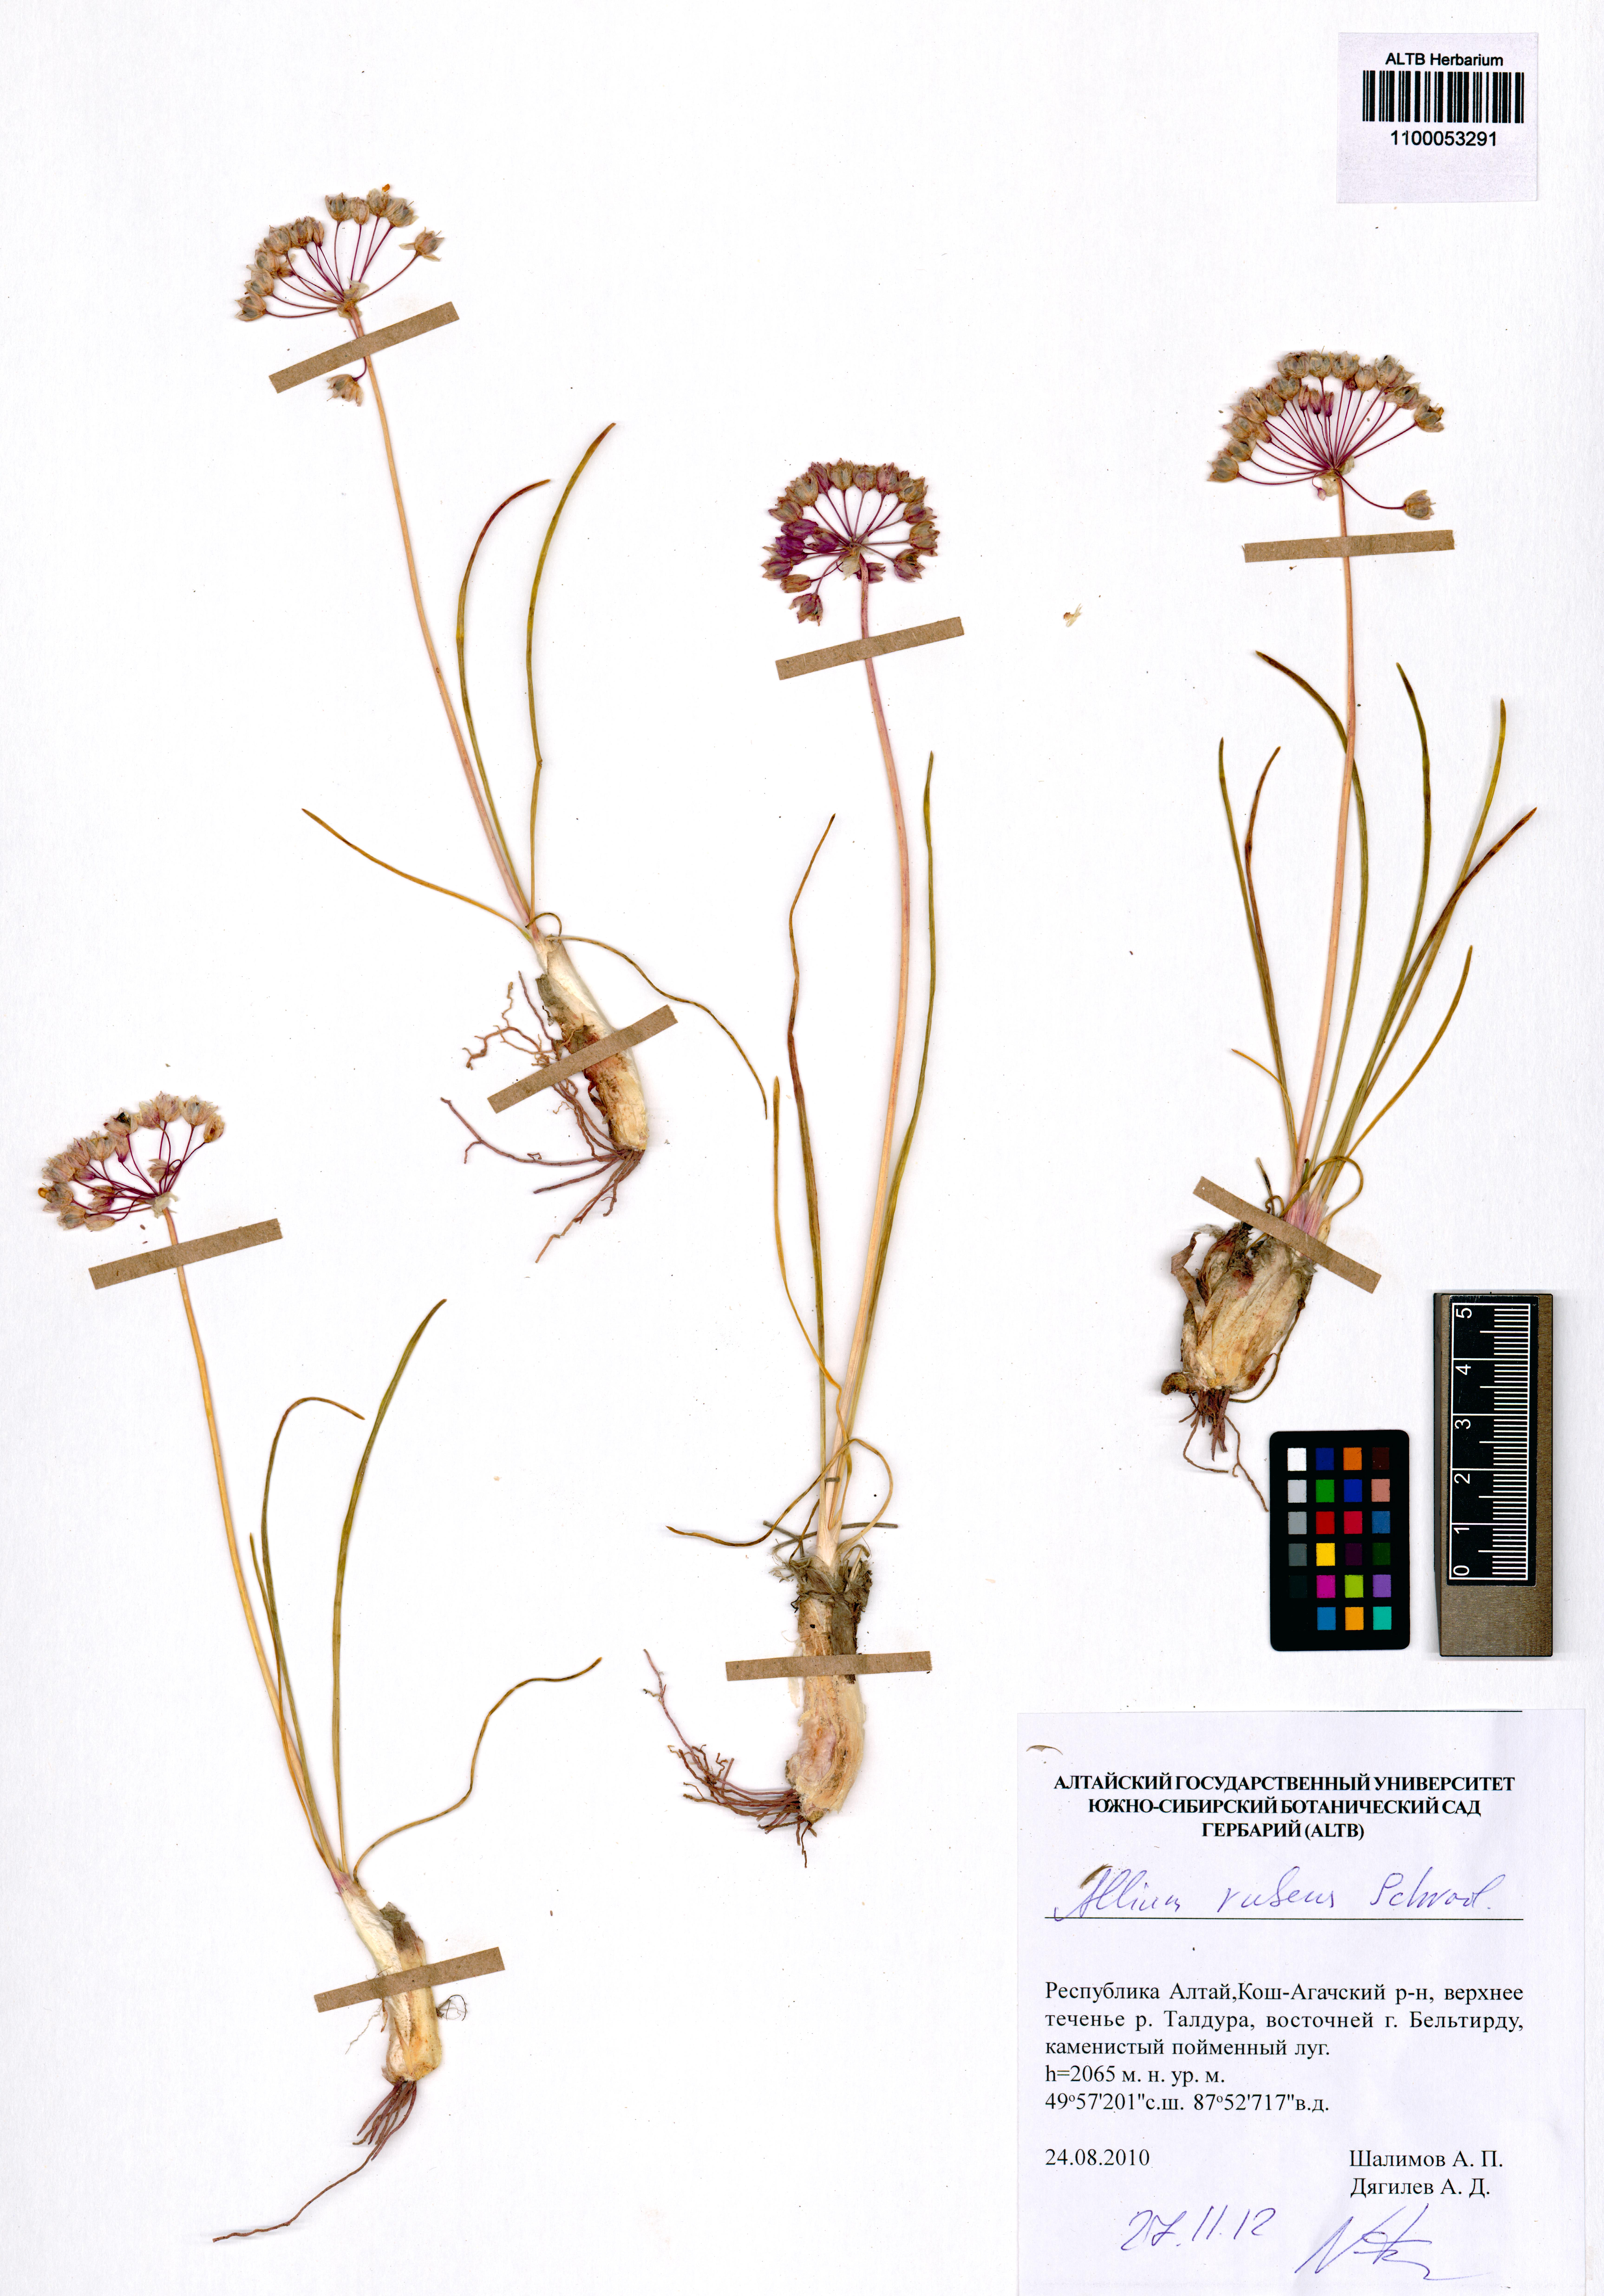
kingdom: Plantae
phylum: Tracheophyta
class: Liliopsida
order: Asparagales
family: Amaryllidaceae
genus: Allium
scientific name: Allium rubens
